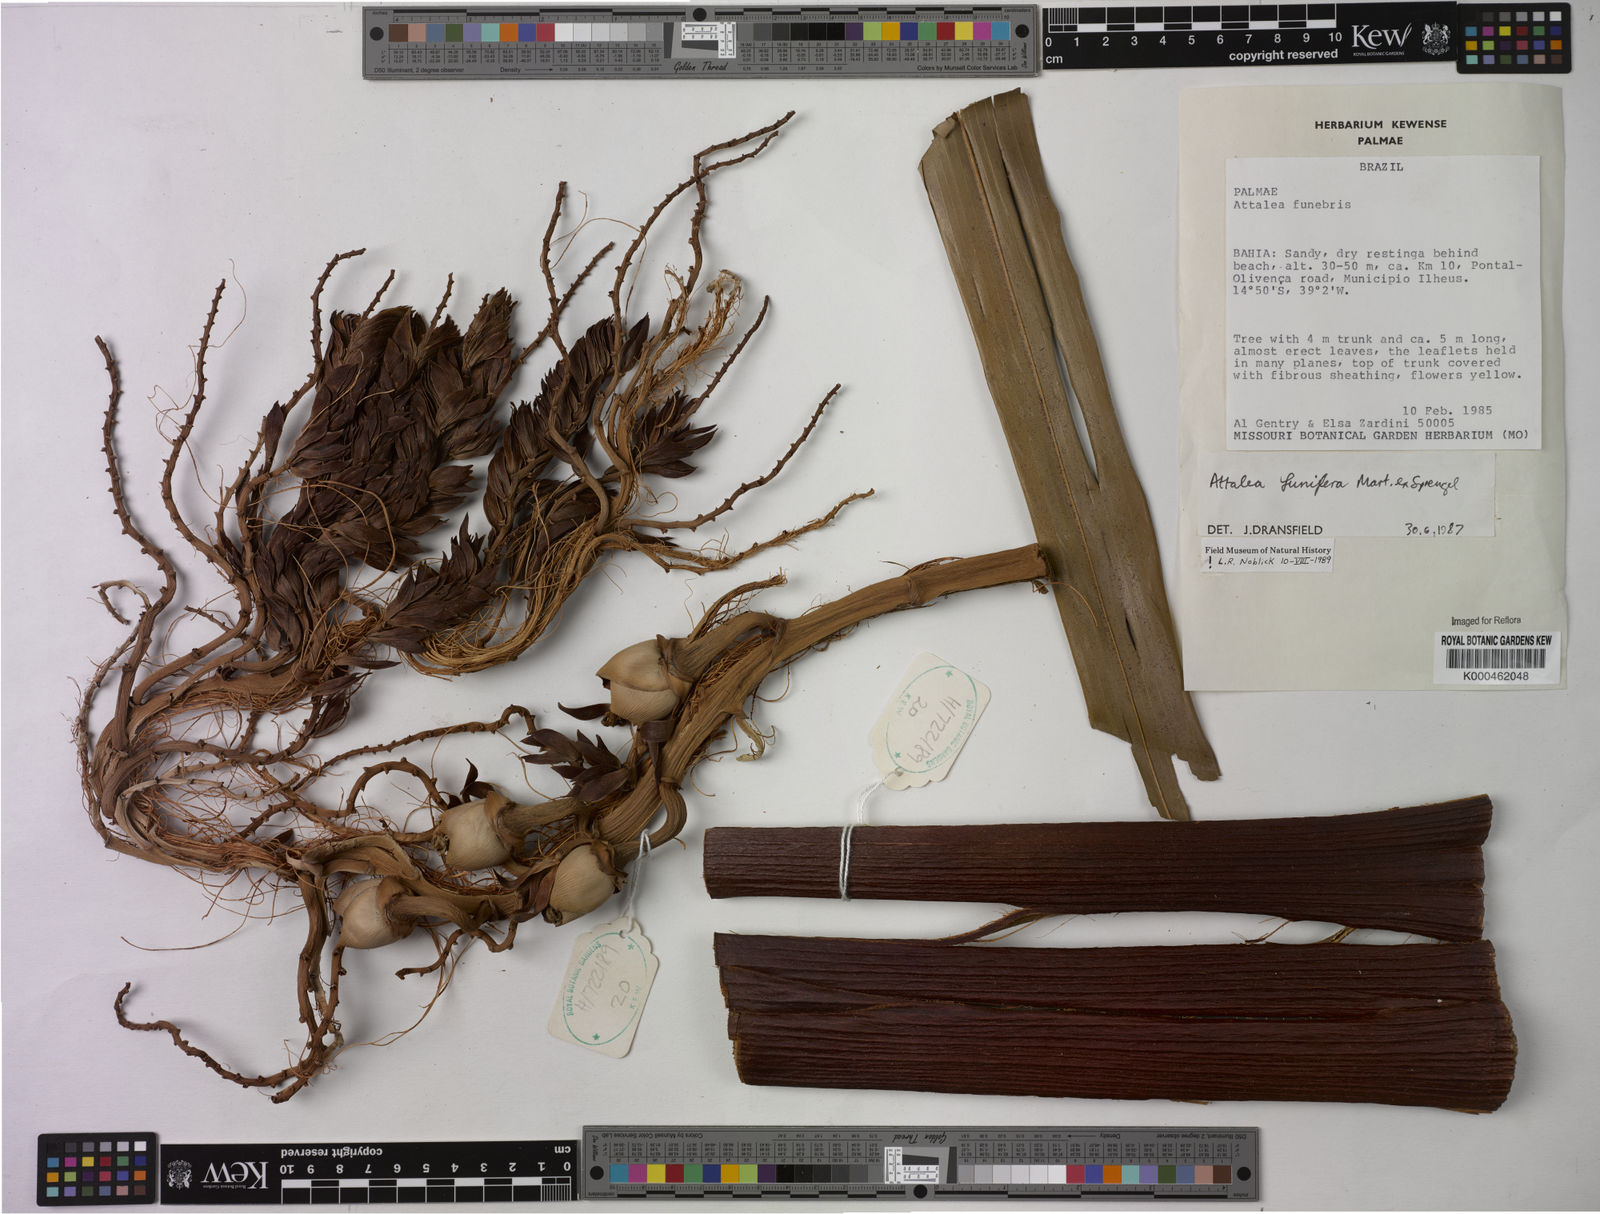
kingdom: Plantae
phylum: Tracheophyta
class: Liliopsida
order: Arecales
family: Arecaceae
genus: Attalea
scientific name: Attalea funifera
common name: Piassava palm
